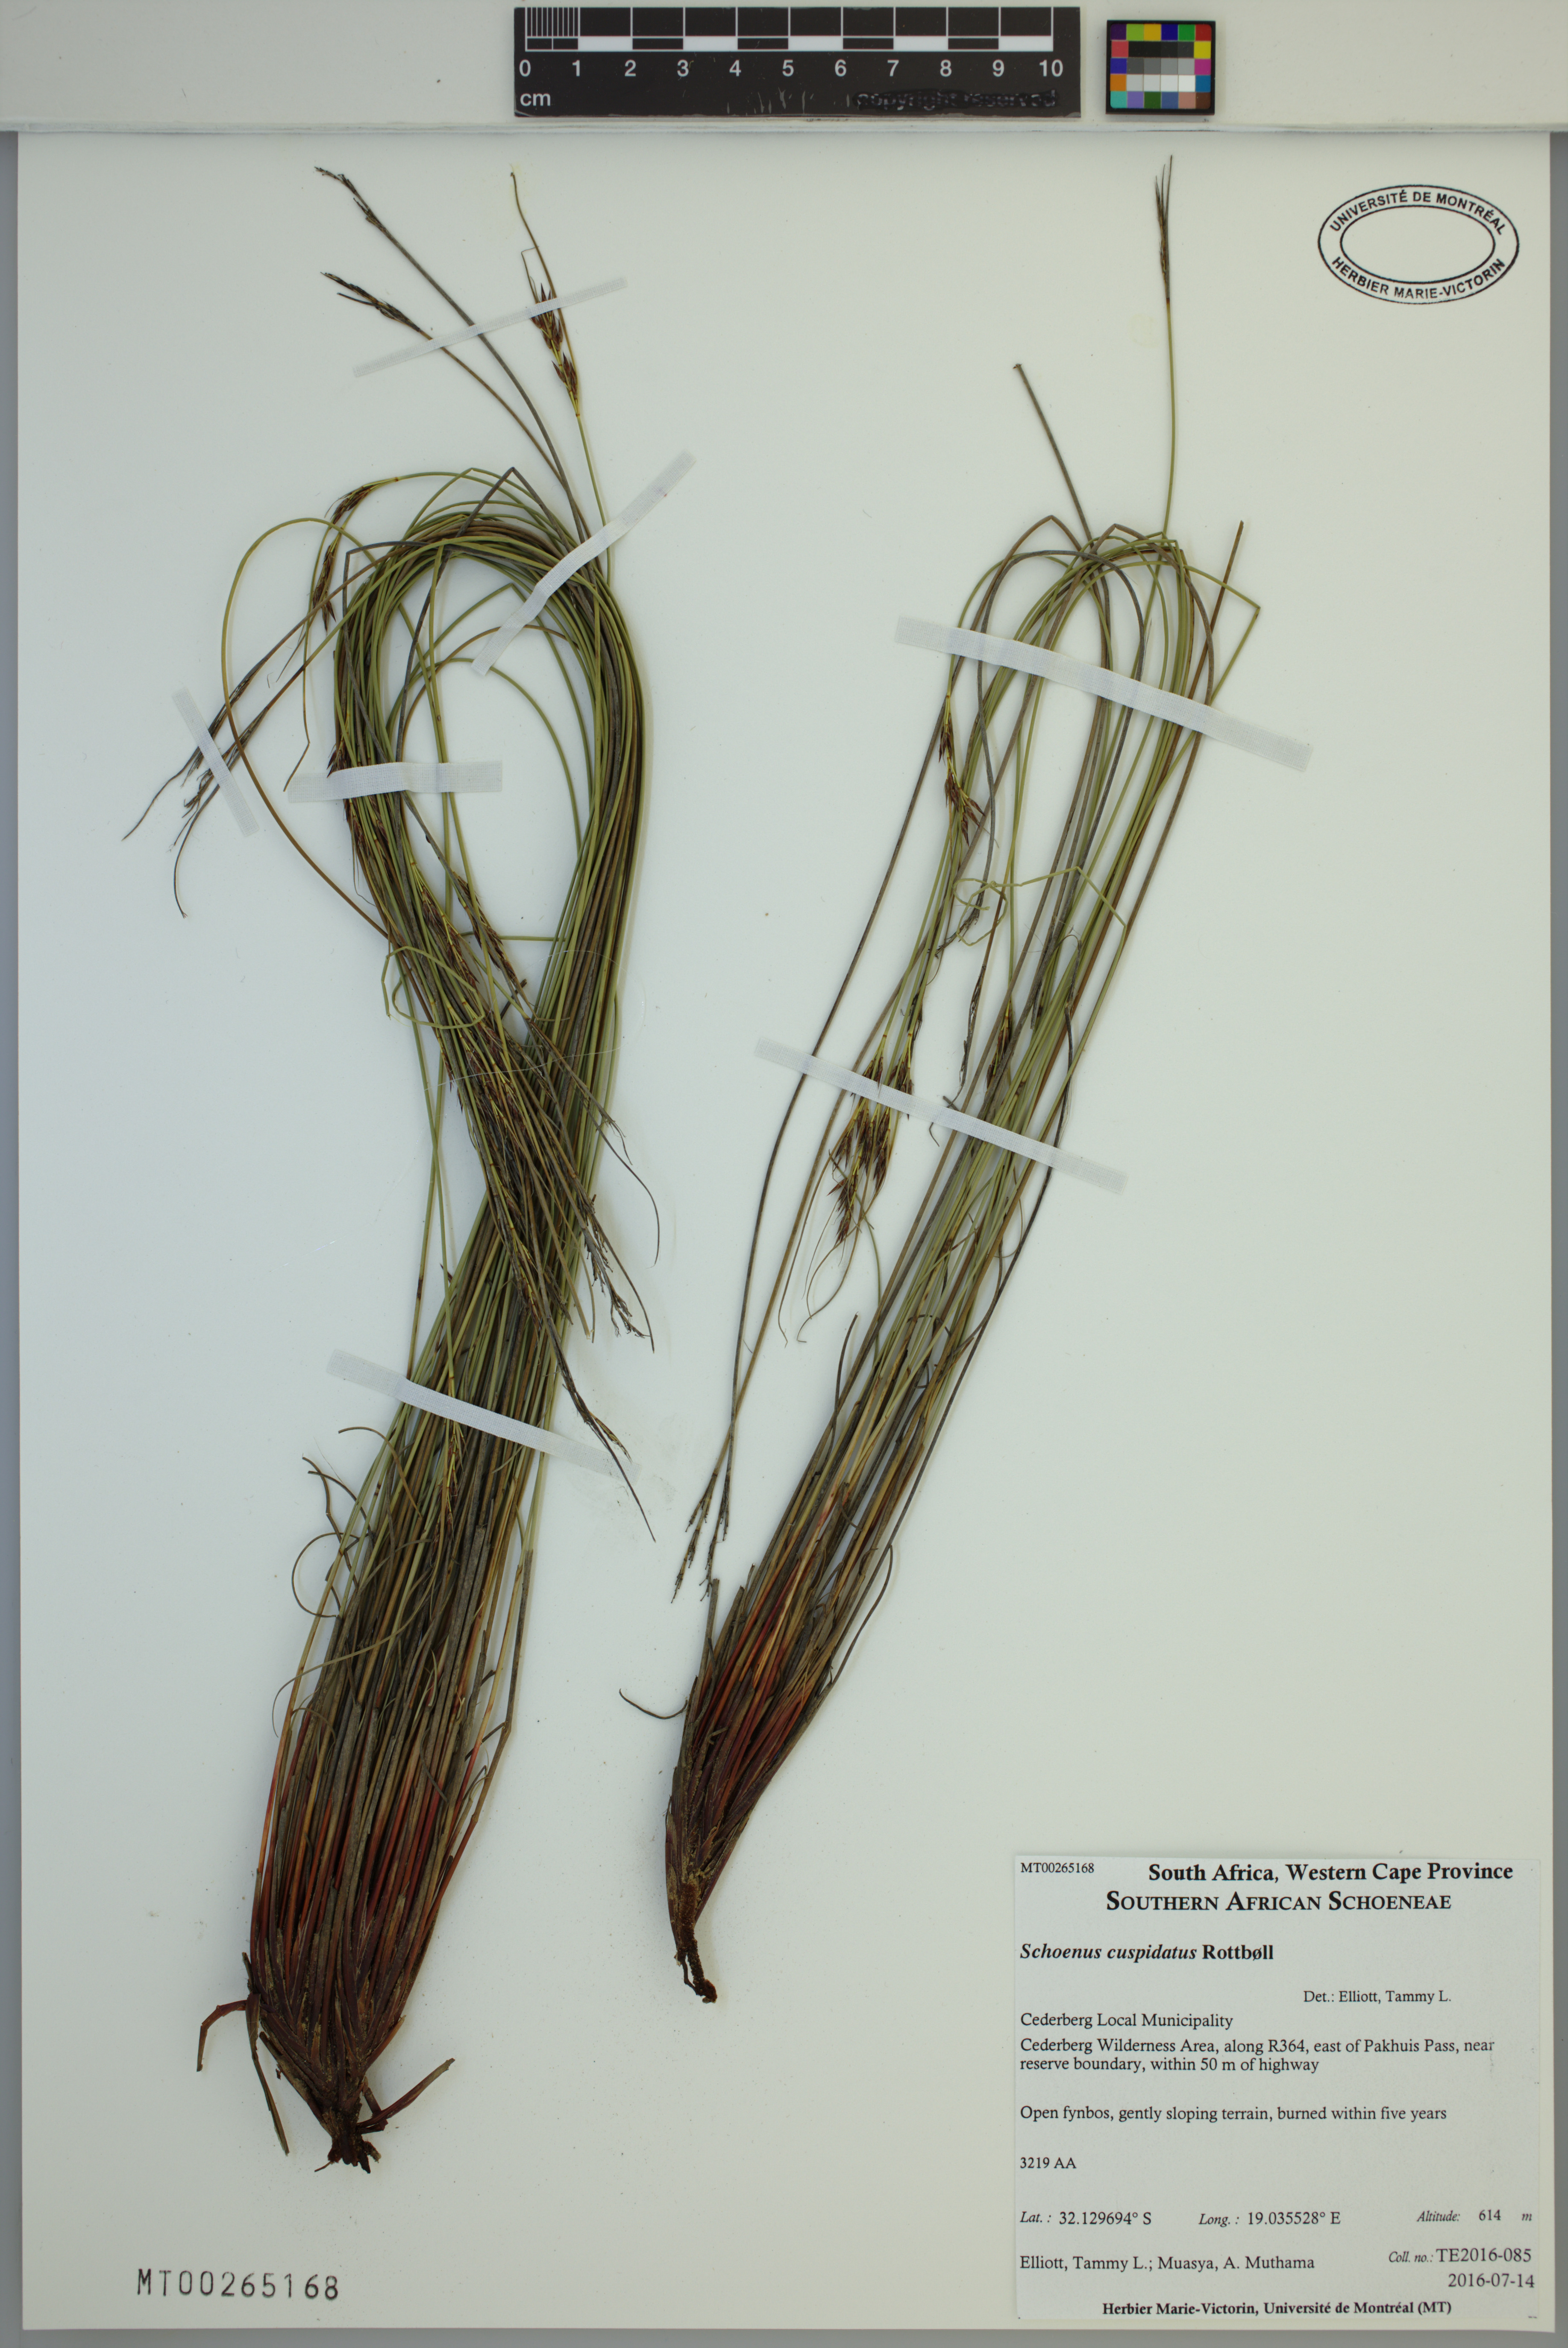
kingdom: Plantae
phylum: Tracheophyta
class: Liliopsida
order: Poales
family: Cyperaceae
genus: Schoenus
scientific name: Schoenus cuspidatus
